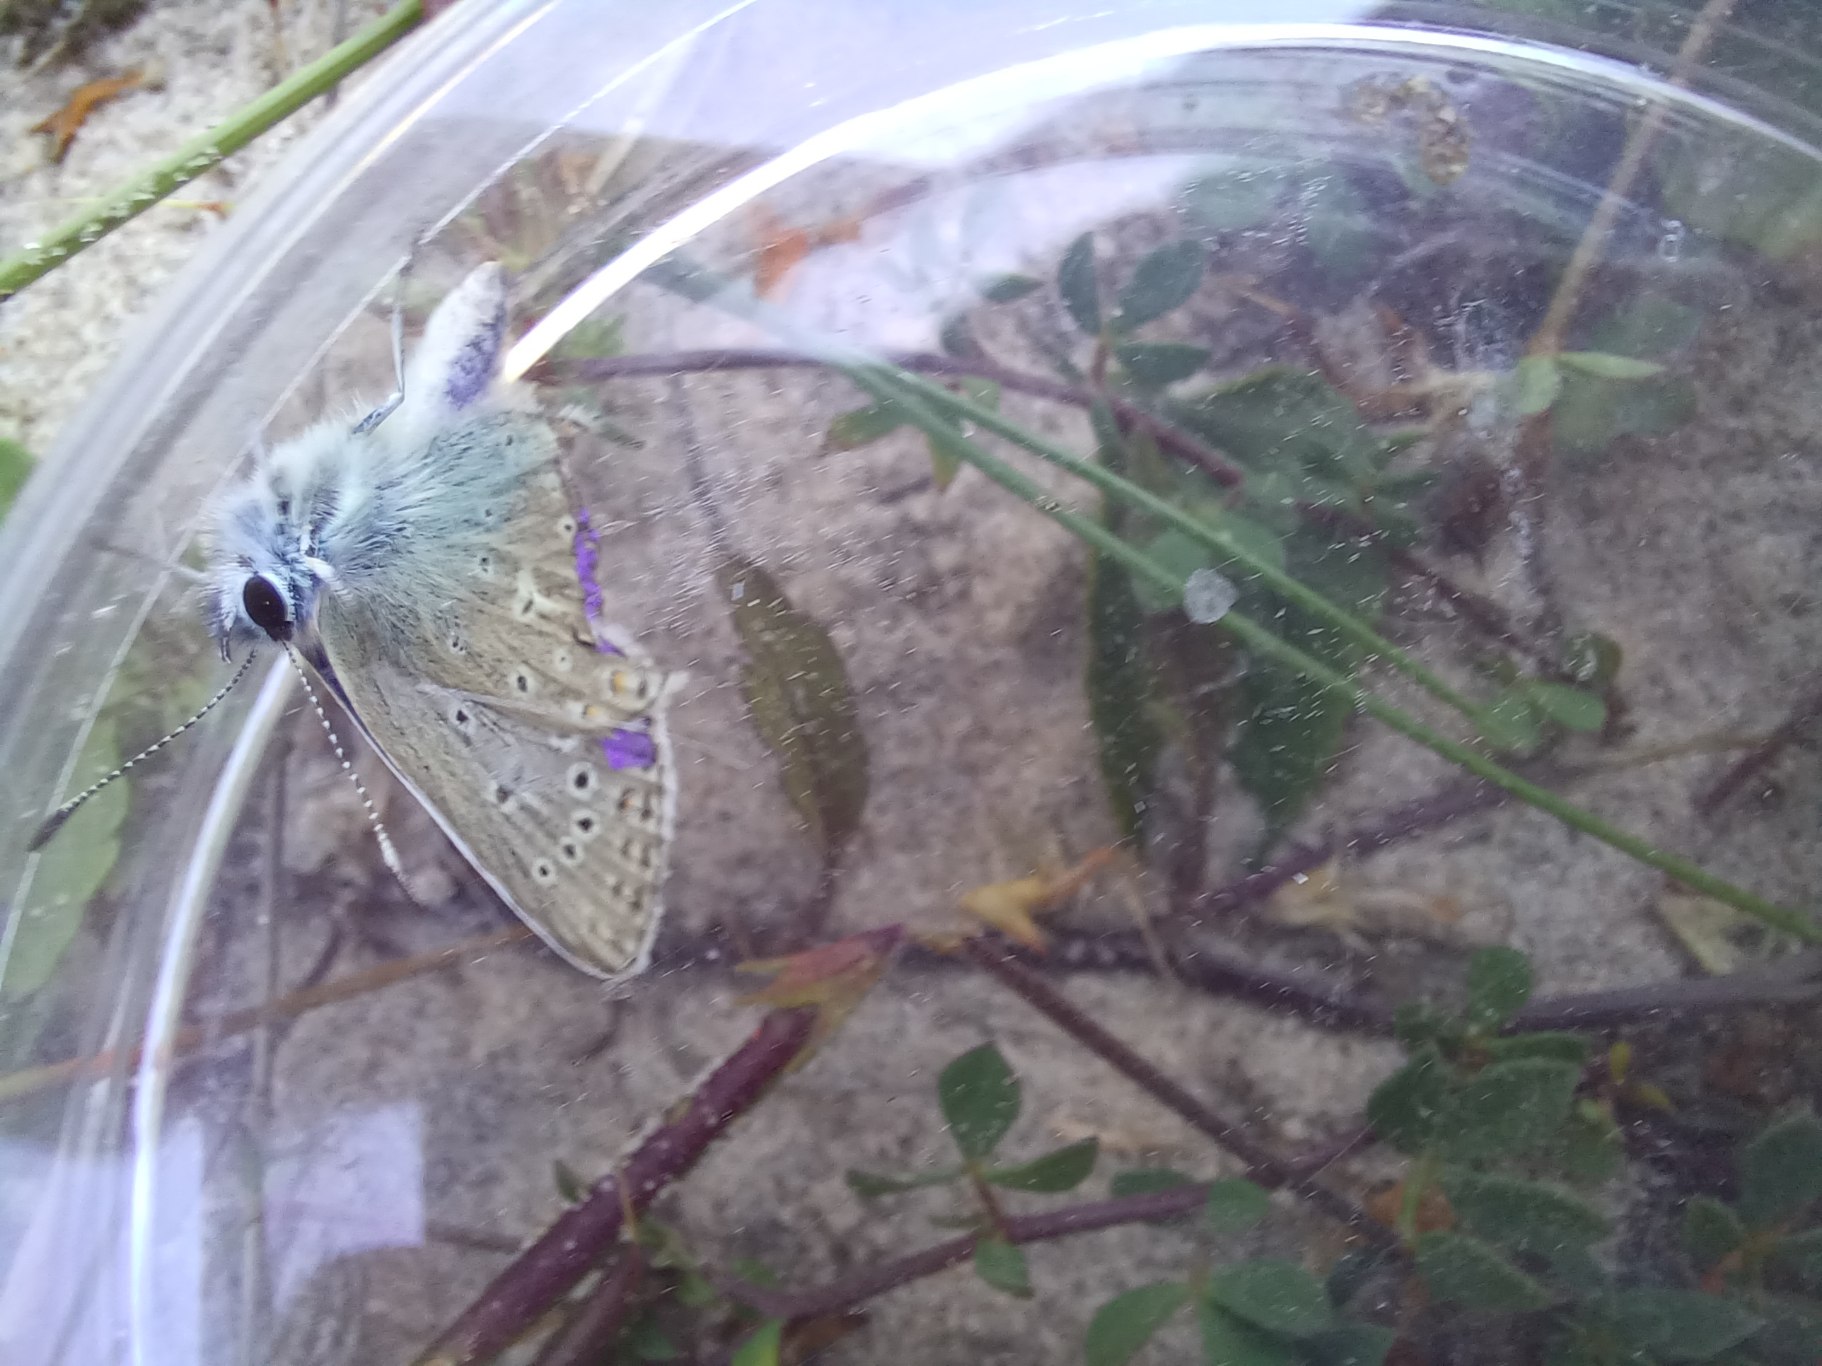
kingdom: Animalia
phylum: Arthropoda
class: Insecta
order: Lepidoptera
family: Lycaenidae
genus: Polyommatus
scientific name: Polyommatus icarus
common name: Almindelig blåfugl
